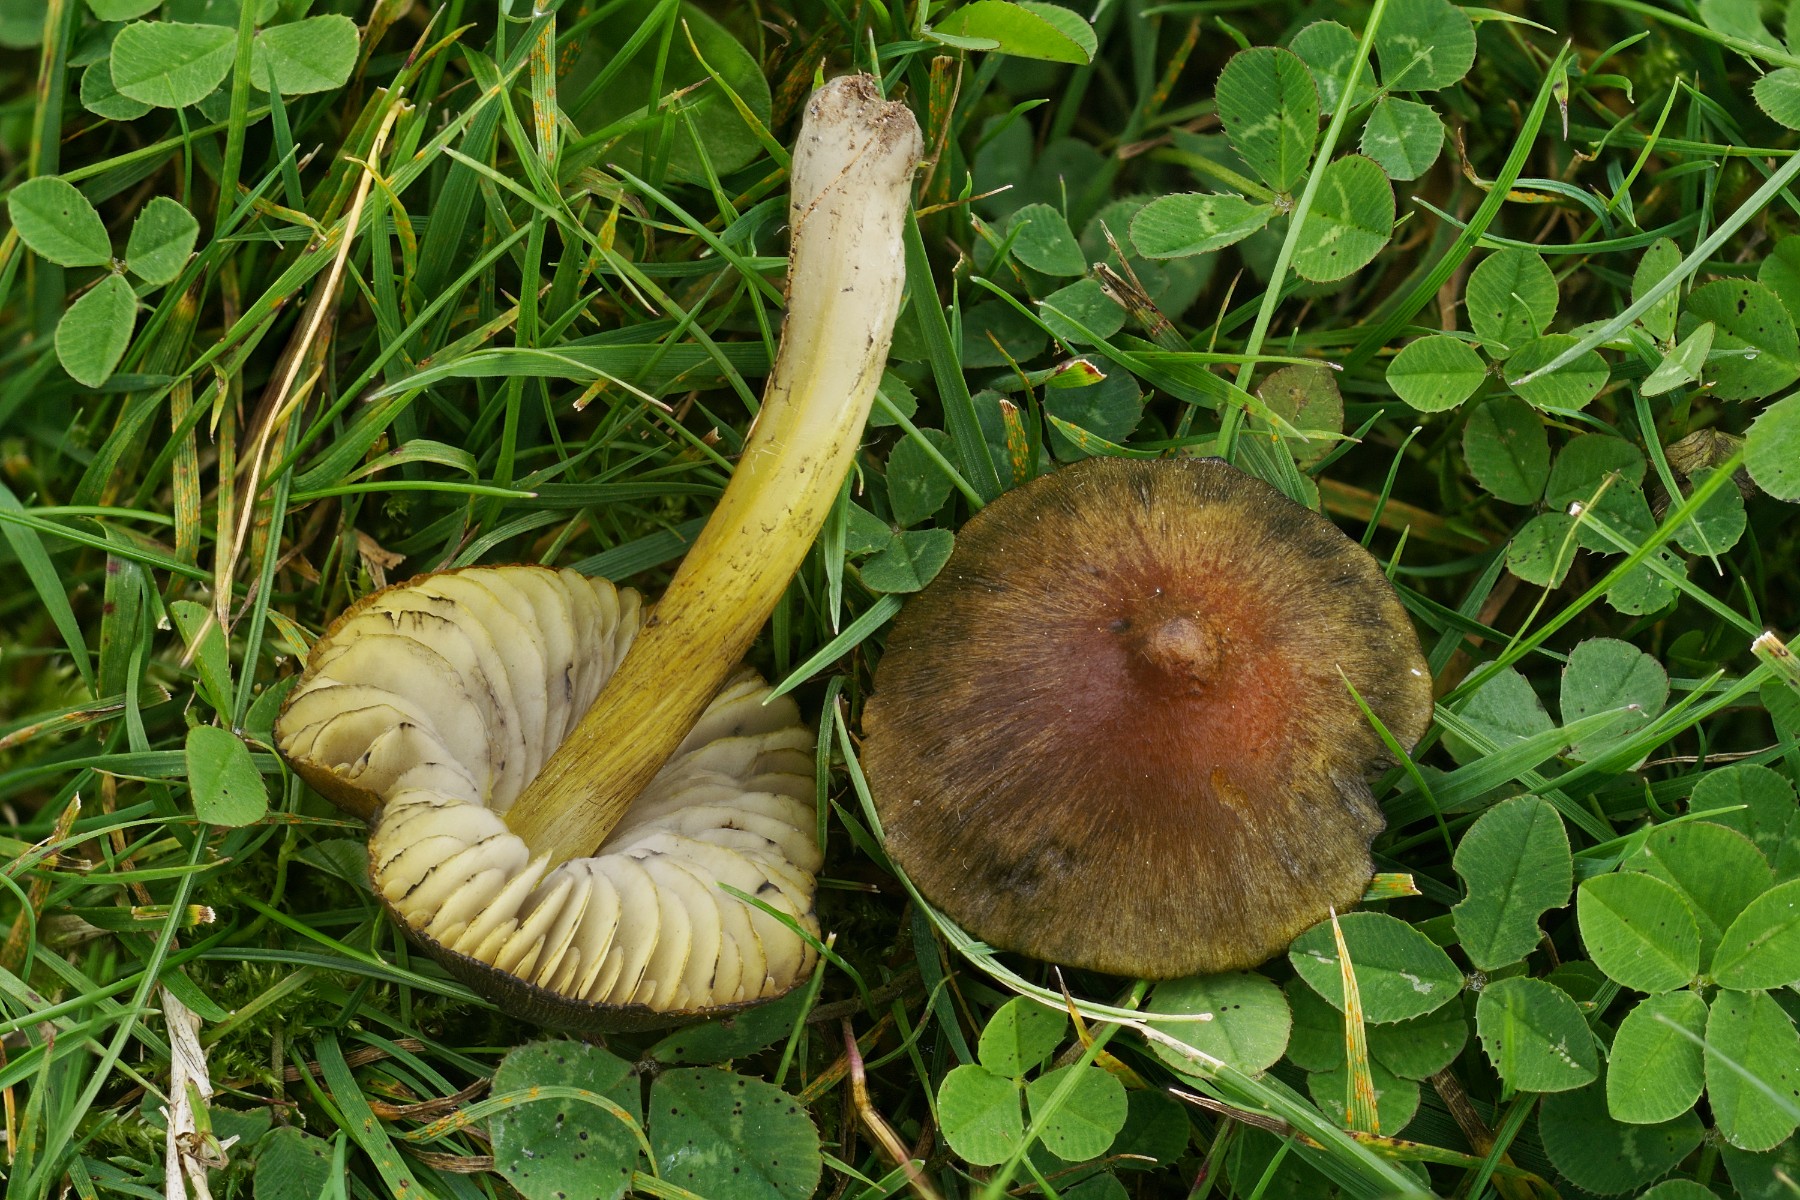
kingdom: Fungi
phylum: Basidiomycota
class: Agaricomycetes
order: Agaricales
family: Hygrophoraceae
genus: Hygrocybe
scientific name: Hygrocybe conica
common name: kegle-vokshat
